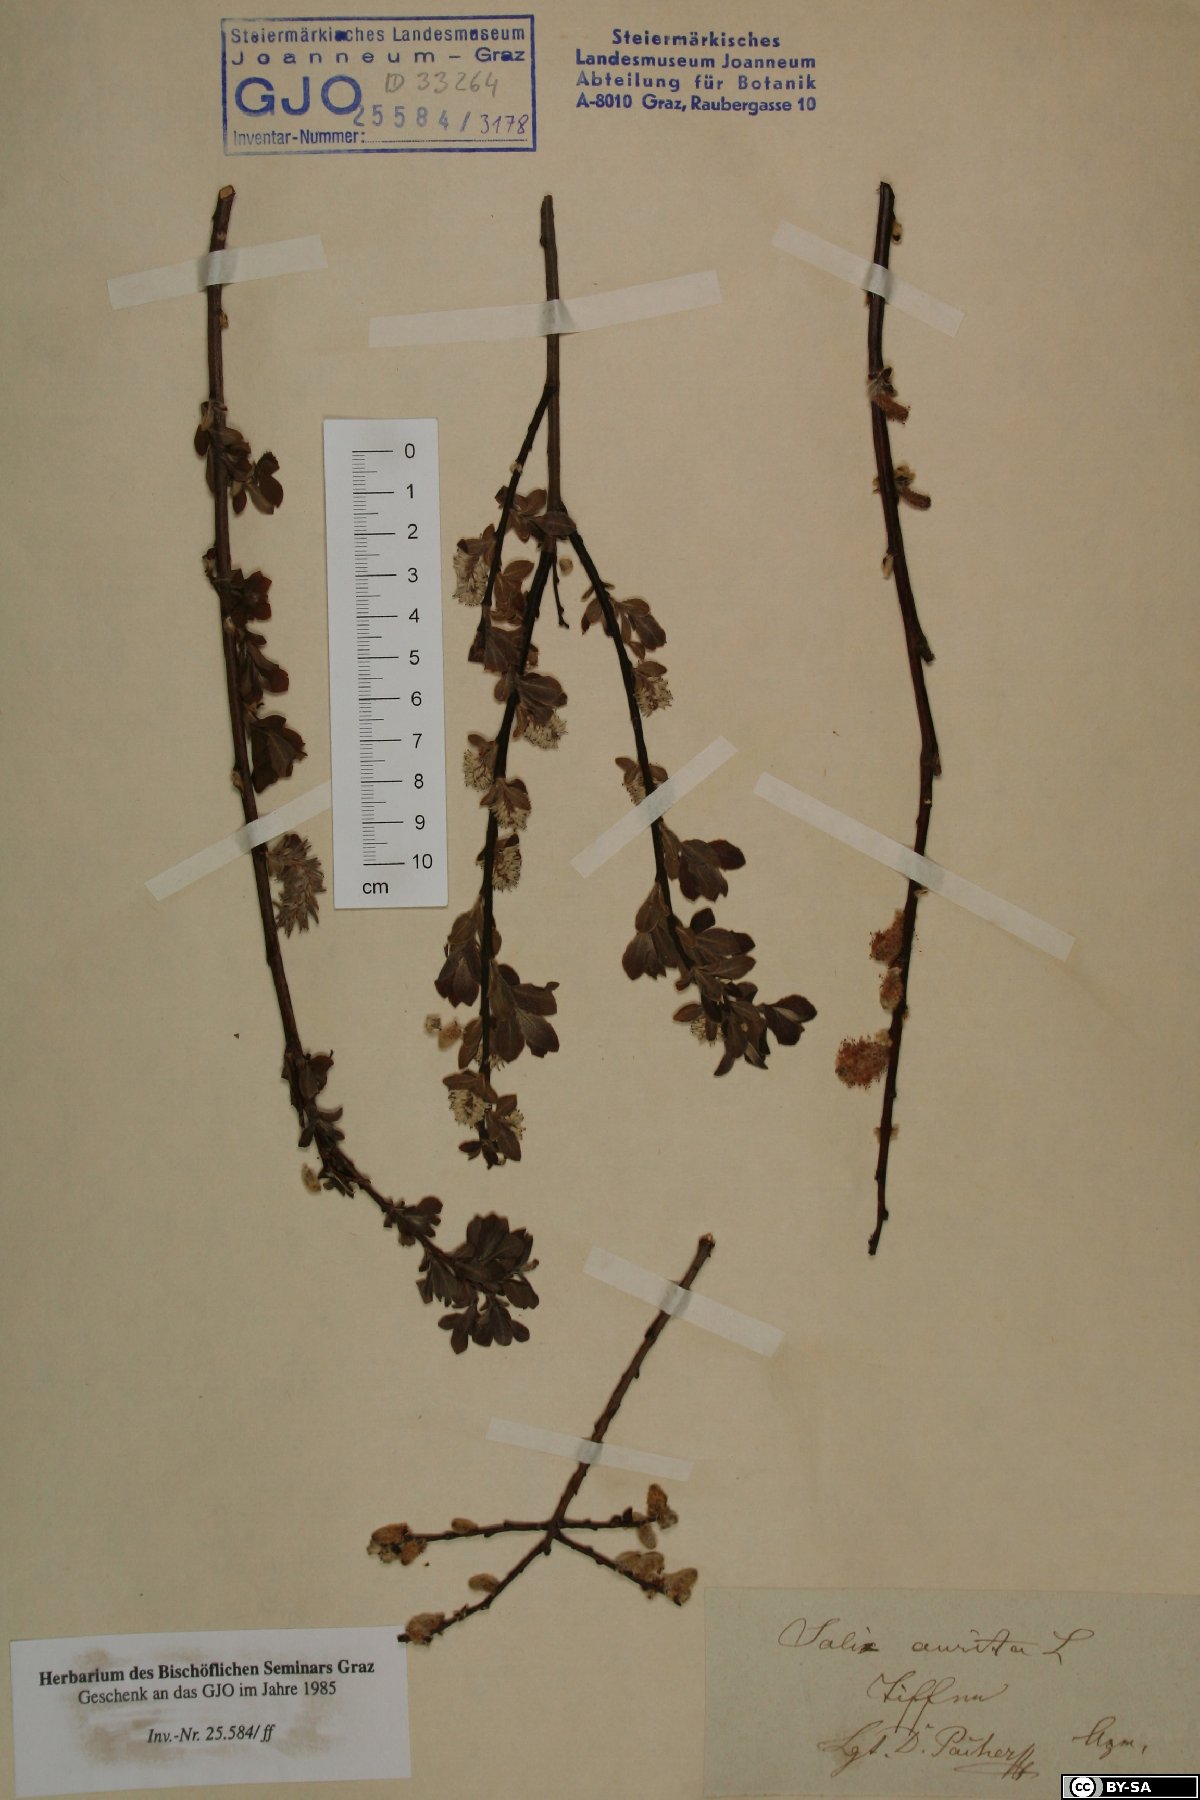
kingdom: Plantae
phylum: Tracheophyta
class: Magnoliopsida
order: Malpighiales
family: Salicaceae
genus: Salix
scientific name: Salix aurita
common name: Eared willow
